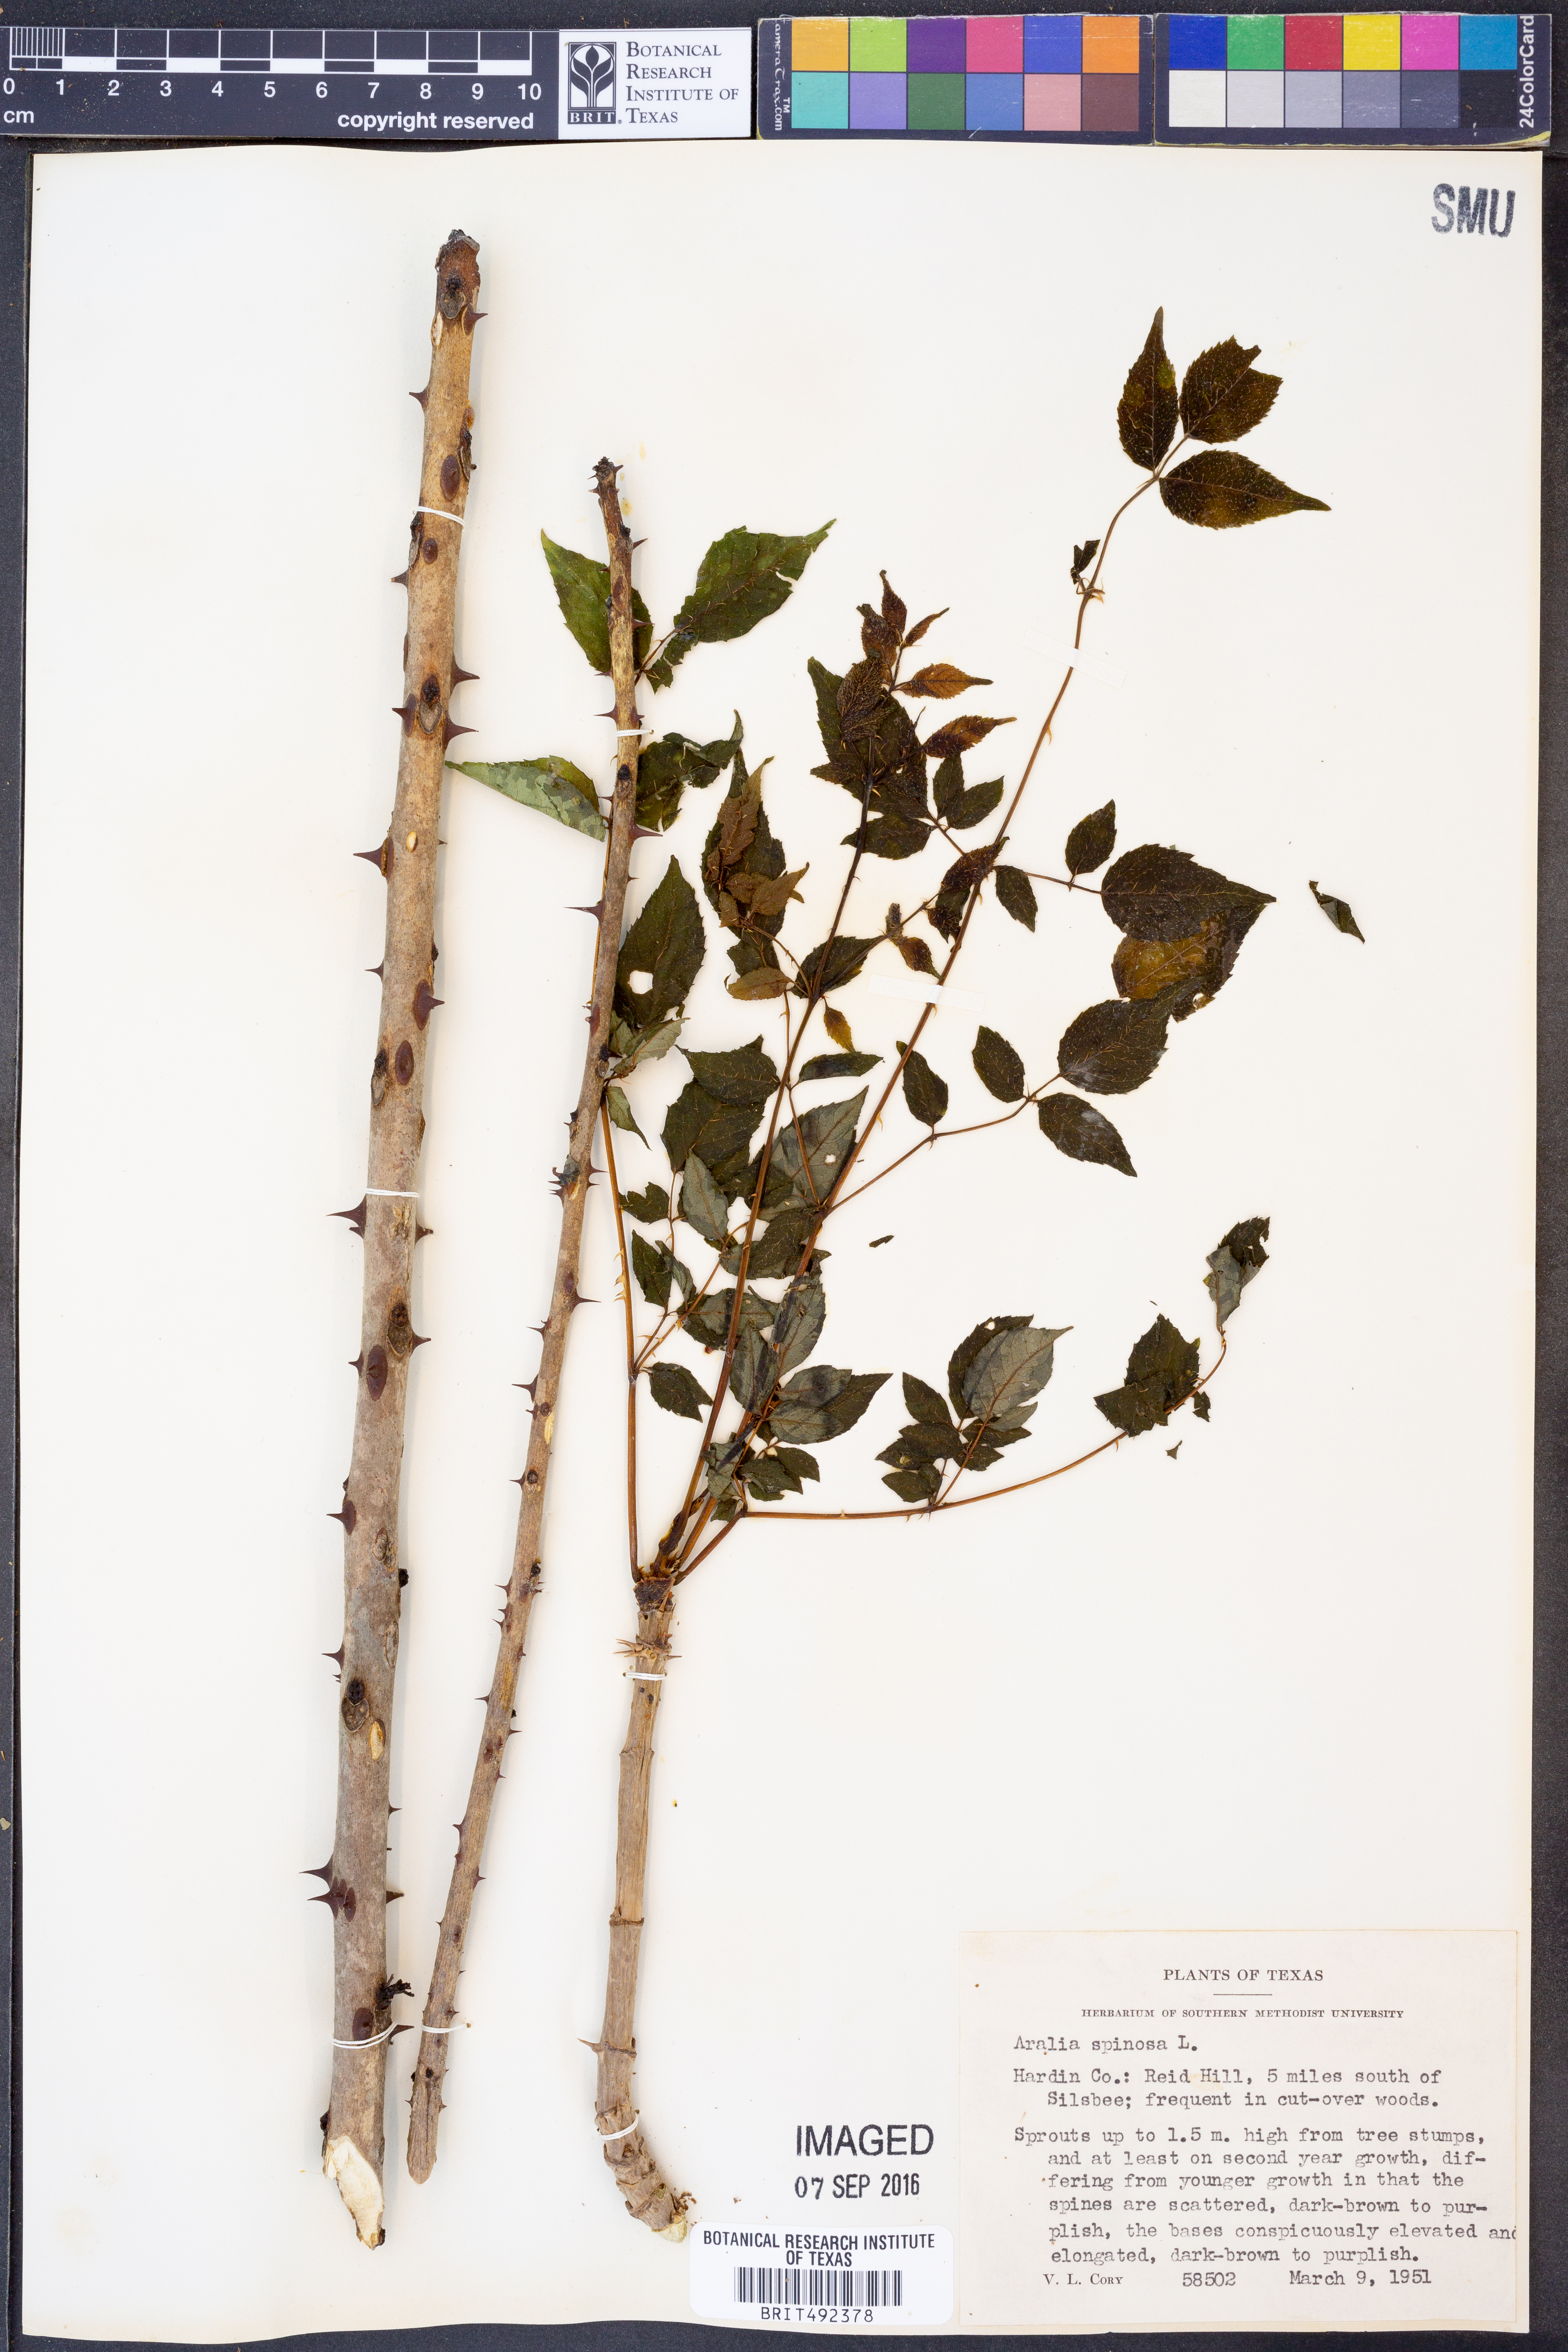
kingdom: Plantae
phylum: Tracheophyta
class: Magnoliopsida
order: Apiales
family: Araliaceae
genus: Aralia
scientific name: Aralia spinosa
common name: Hercules'-club
